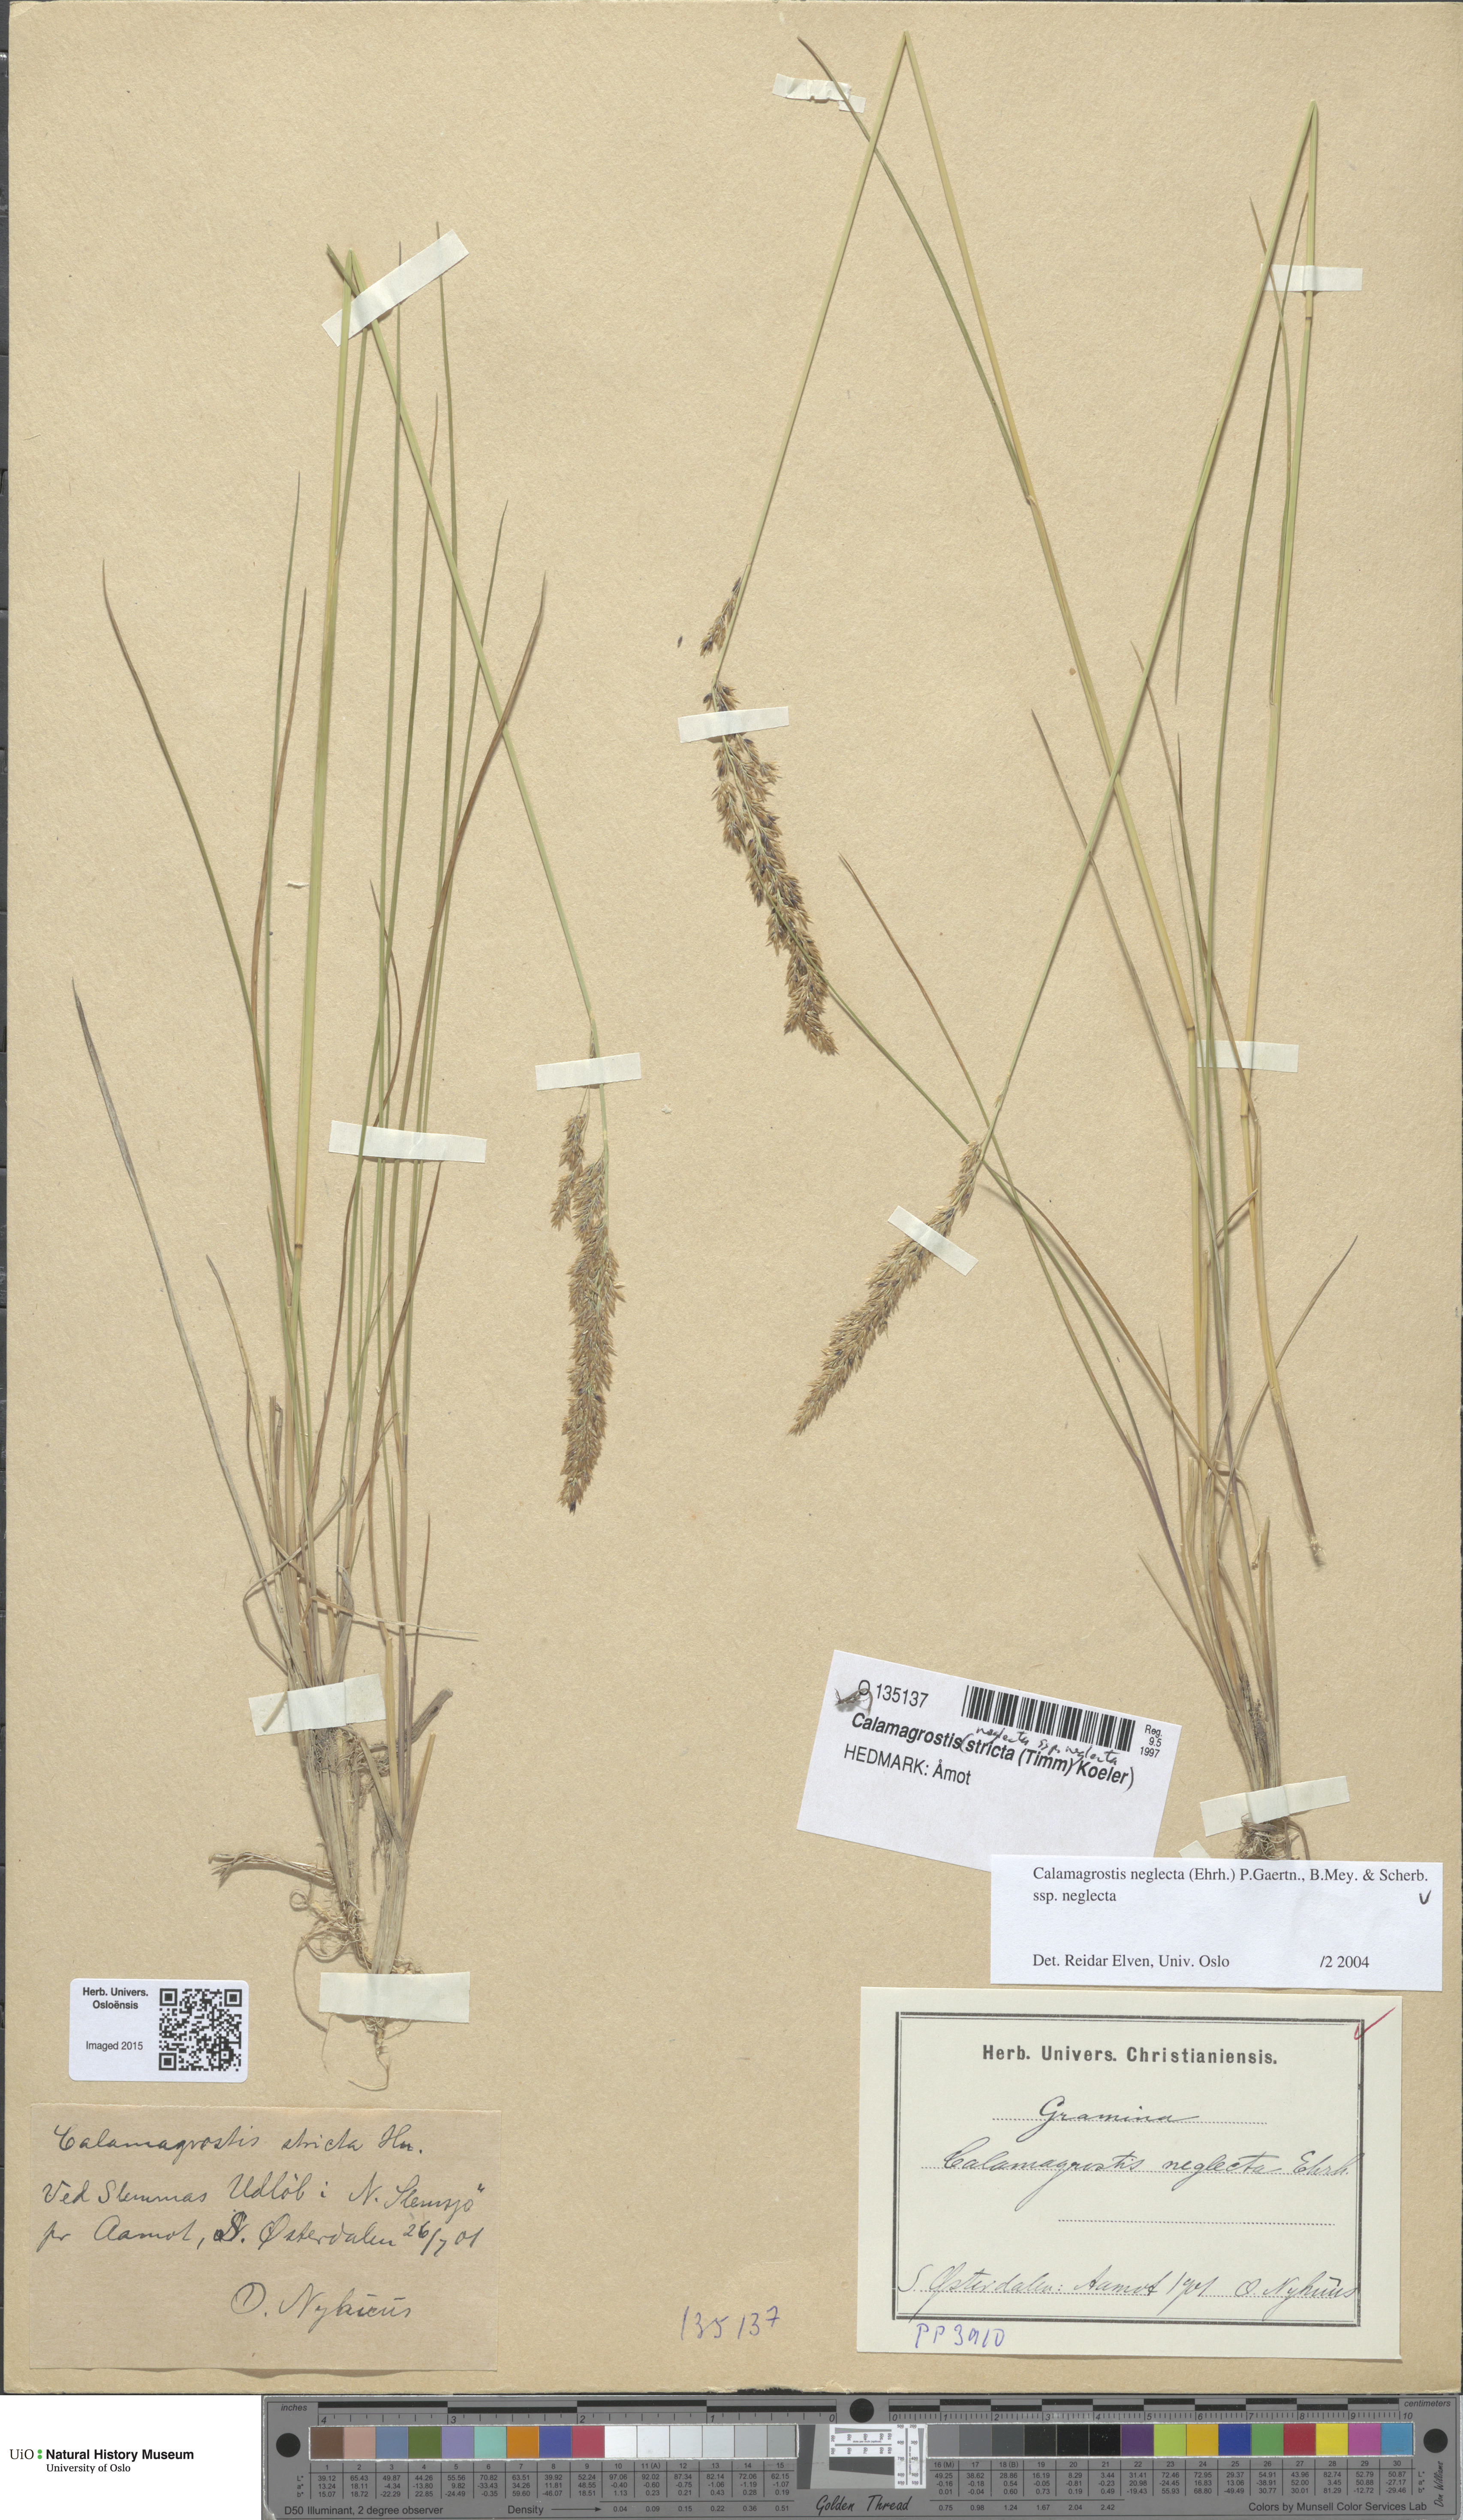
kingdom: Plantae
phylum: Tracheophyta
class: Liliopsida
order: Poales
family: Poaceae
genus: Achnatherum
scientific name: Achnatherum calamagrostis
